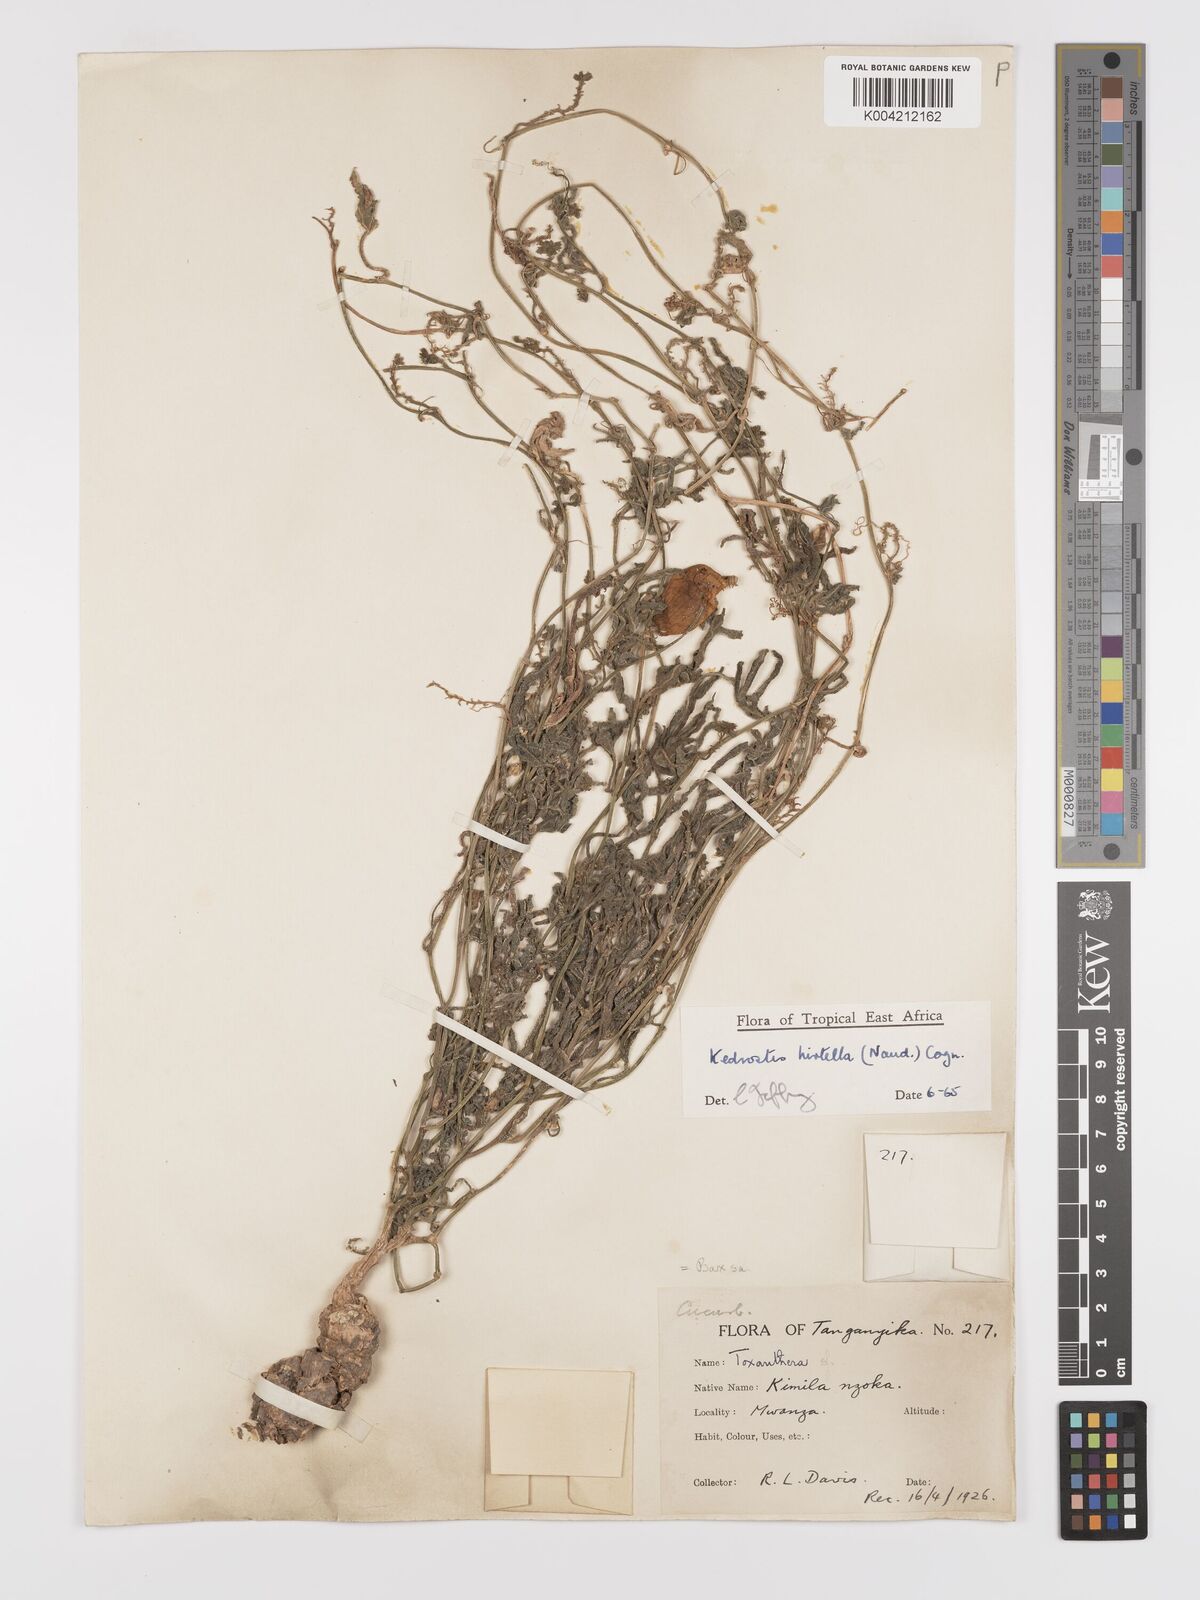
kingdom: Plantae
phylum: Tracheophyta
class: Magnoliopsida
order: Cucurbitales
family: Cucurbitaceae
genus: Kedrostis
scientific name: Kedrostis leloja
